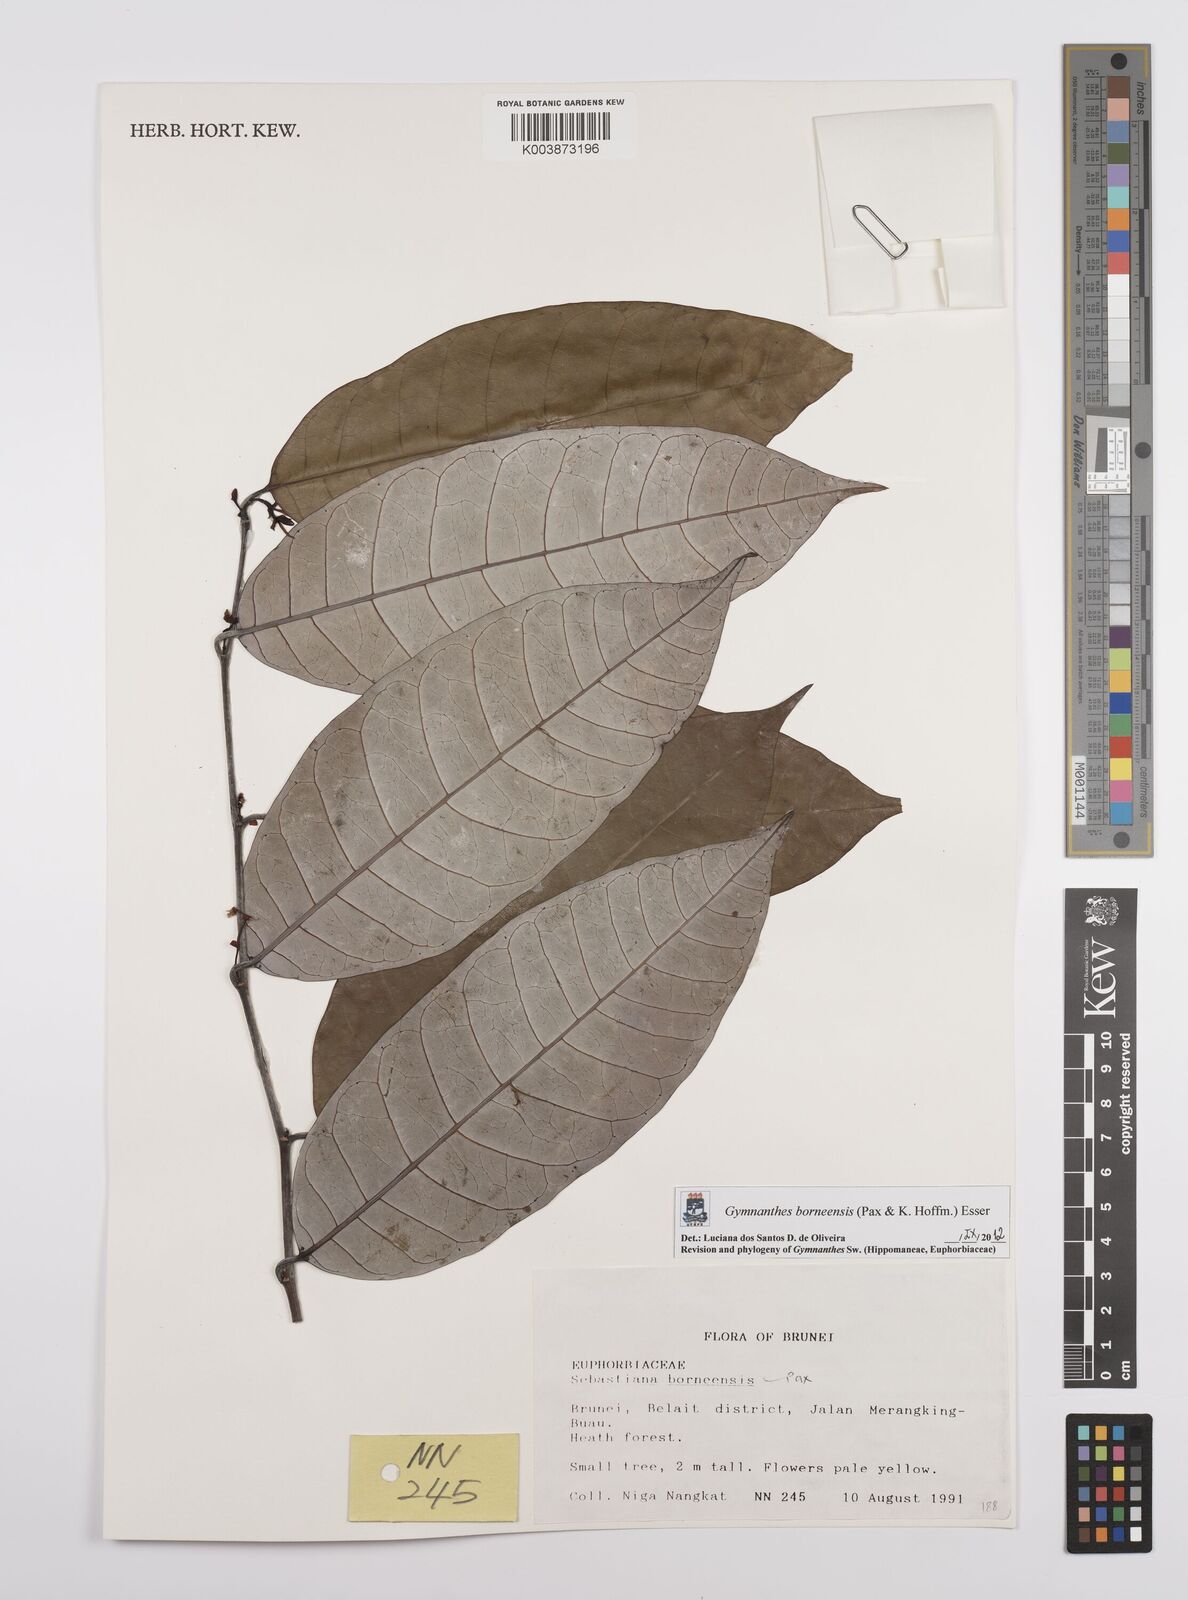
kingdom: Plantae
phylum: Tracheophyta
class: Magnoliopsida
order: Malpighiales
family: Euphorbiaceae
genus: Gymnanthes
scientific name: Gymnanthes borneensis
